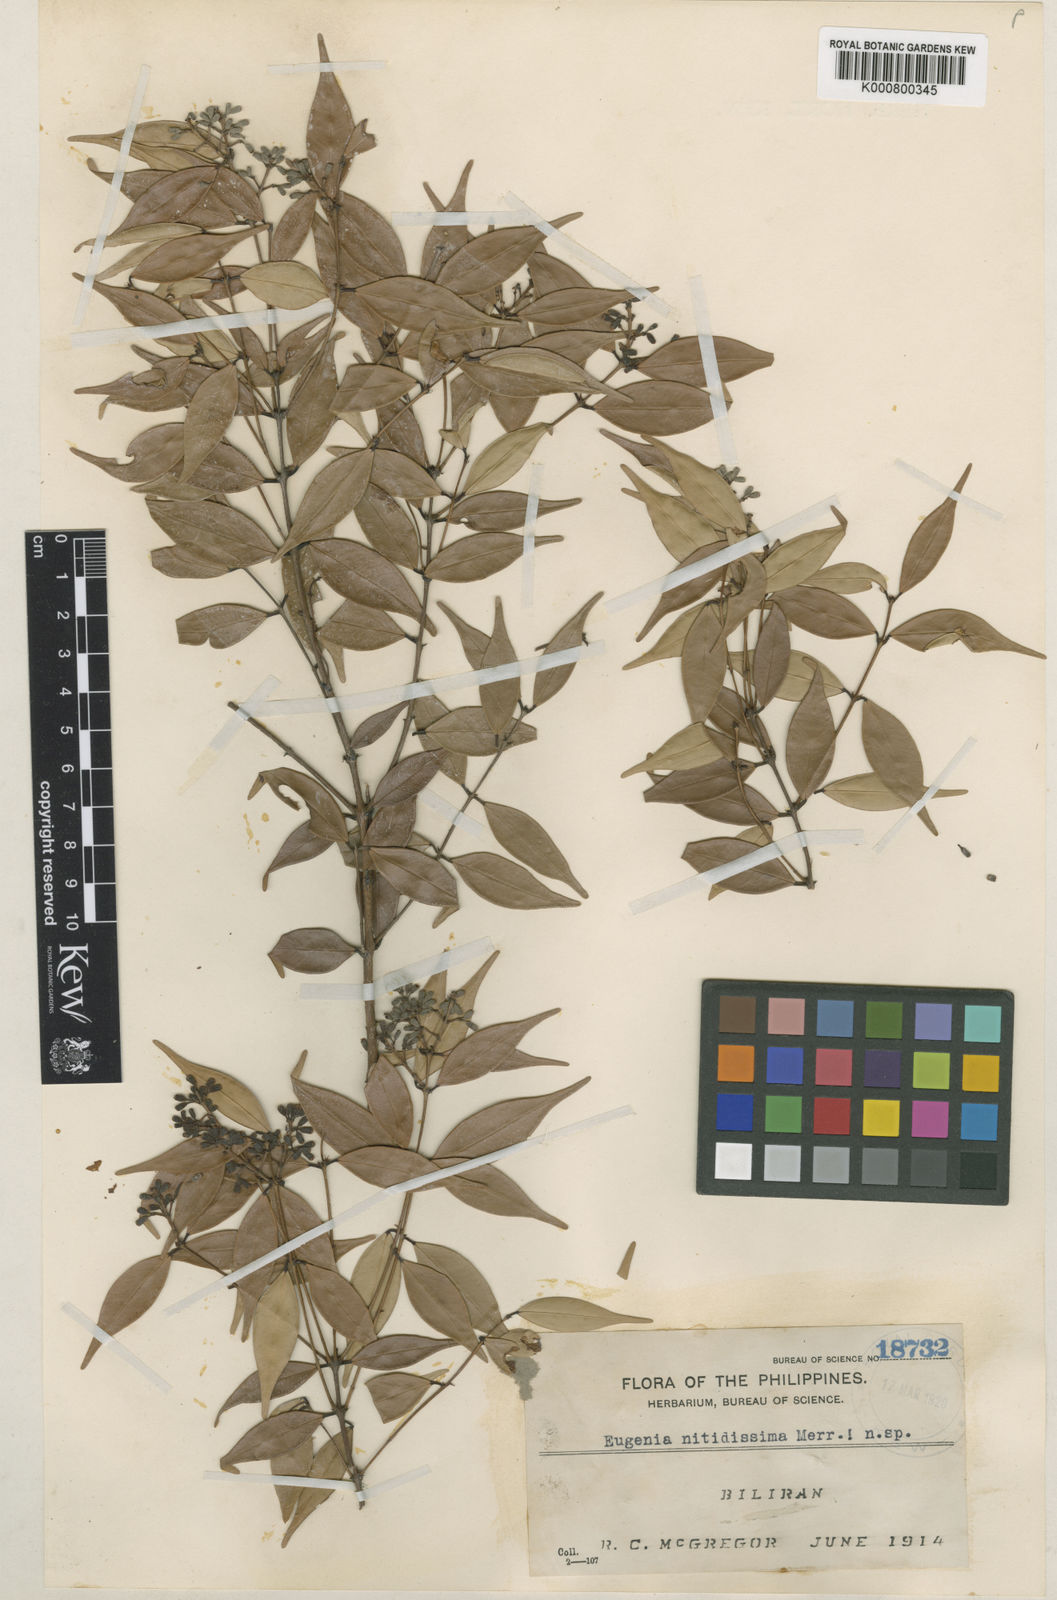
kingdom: Plantae
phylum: Tracheophyta
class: Magnoliopsida
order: Myrtales
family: Myrtaceae
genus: Syzygium
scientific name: Syzygium tenuirame
